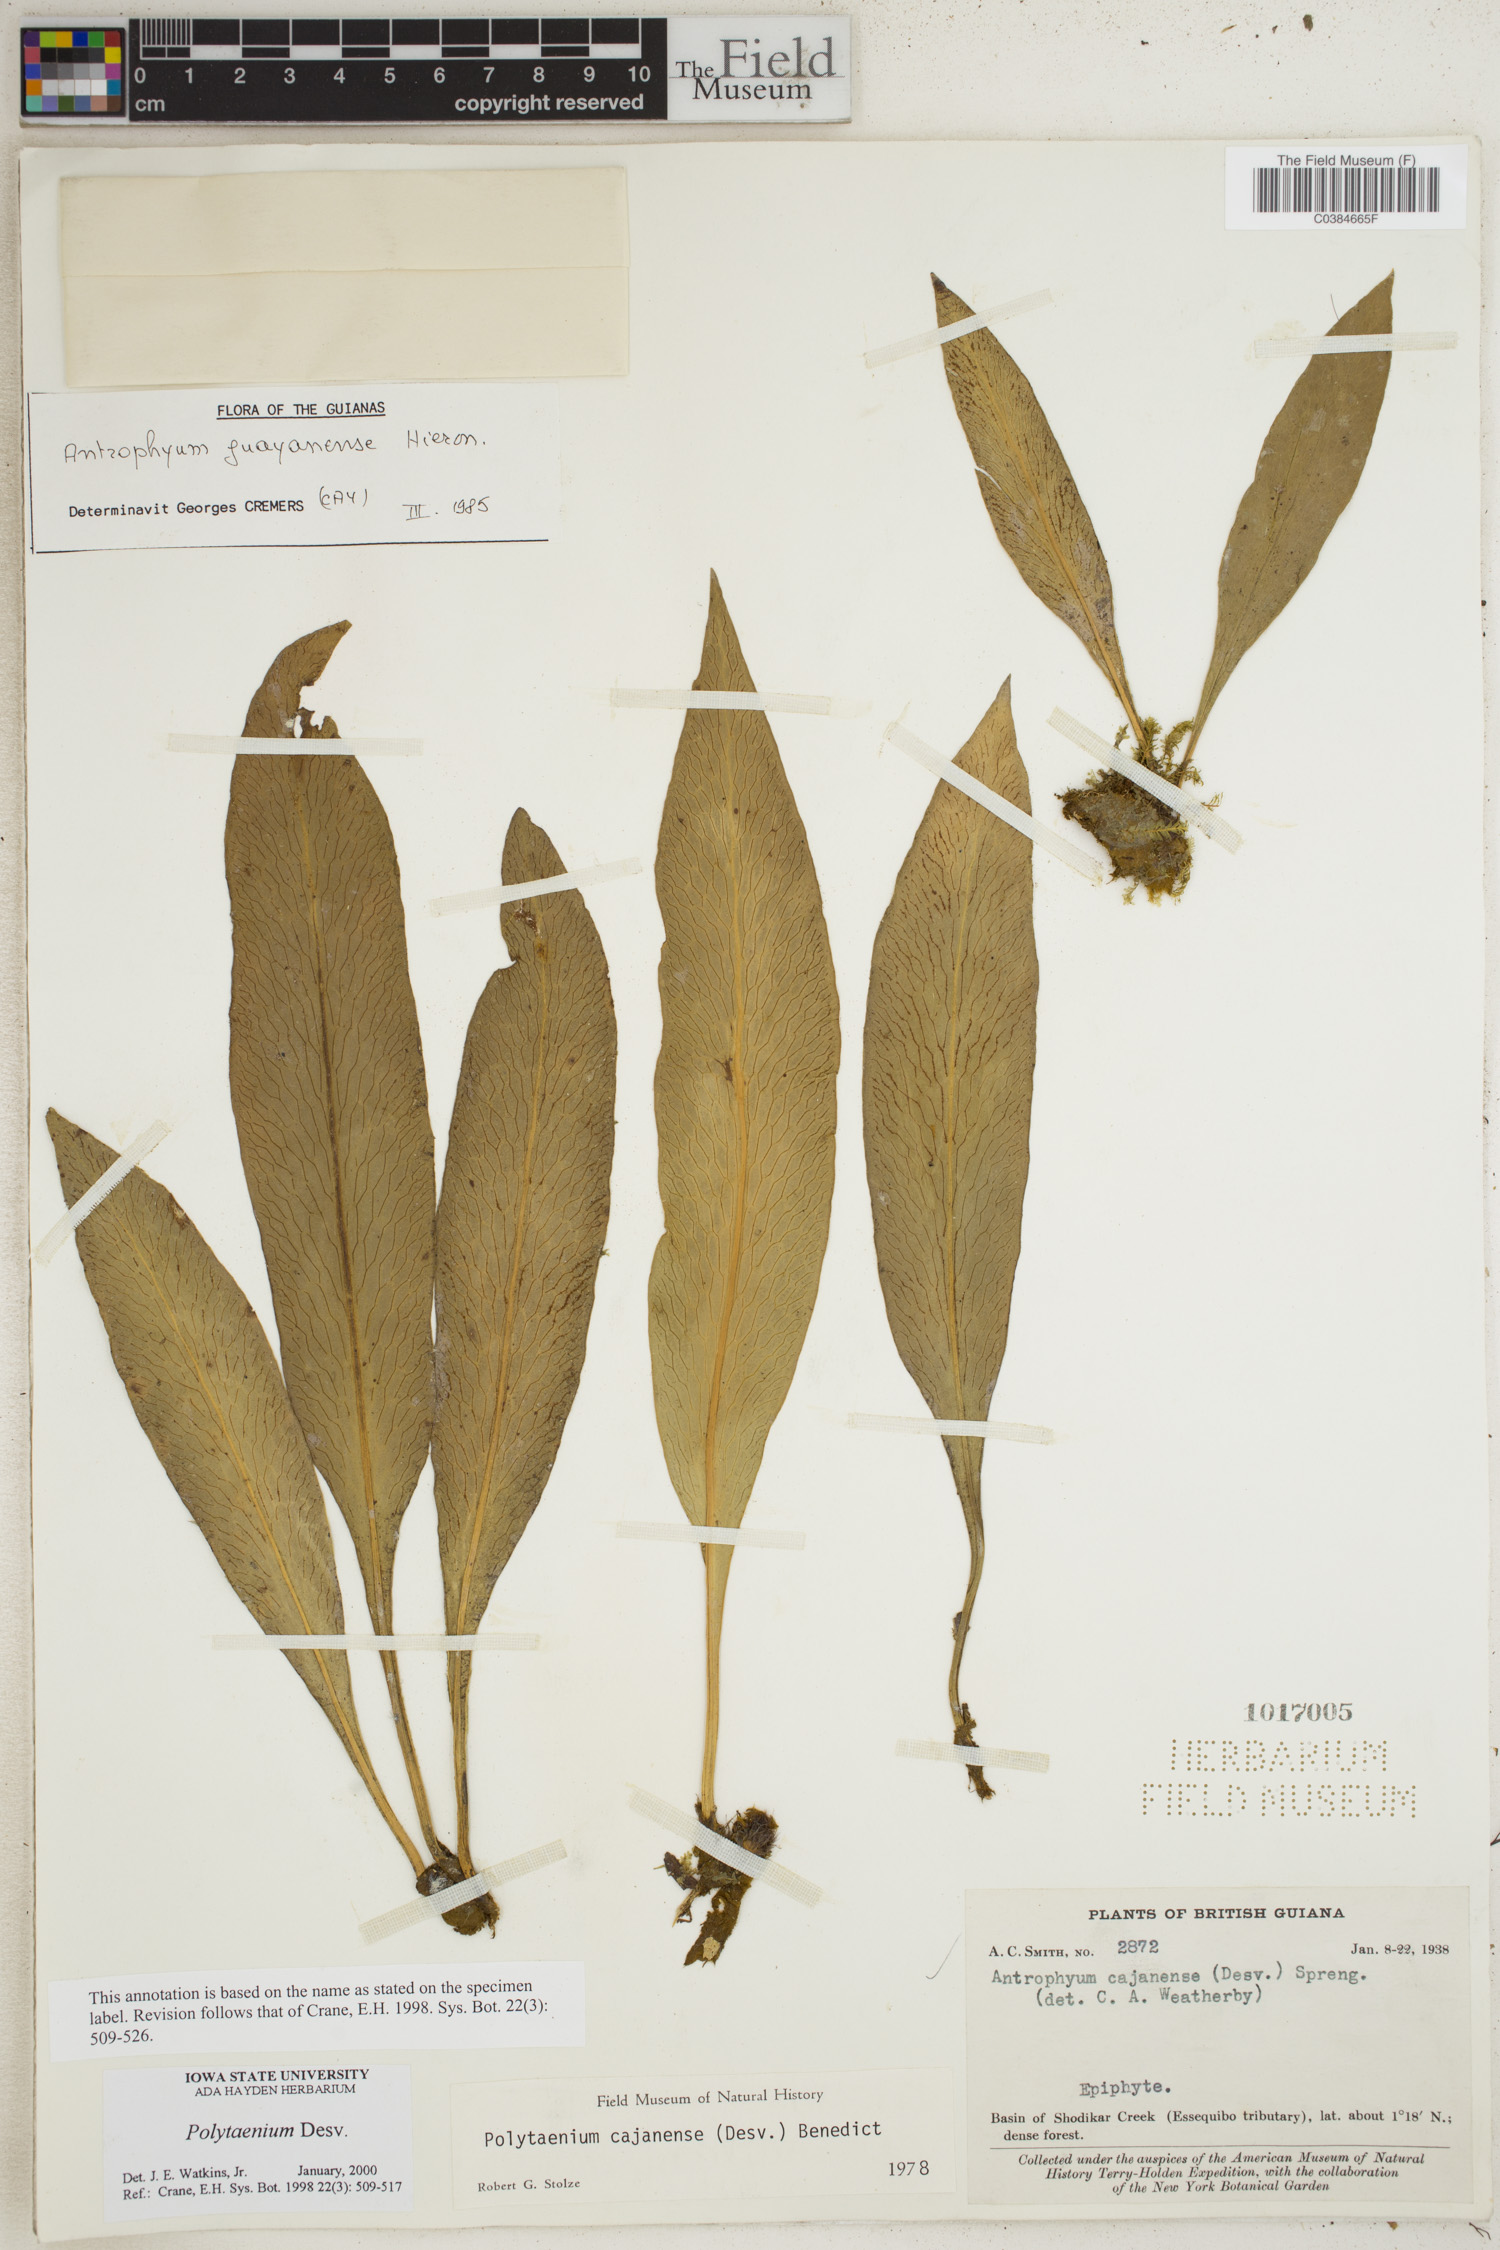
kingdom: Plantae
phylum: Tracheophyta
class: Polypodiopsida
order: Polypodiales
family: Pteridaceae
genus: Polytaenium
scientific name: Polytaenium
